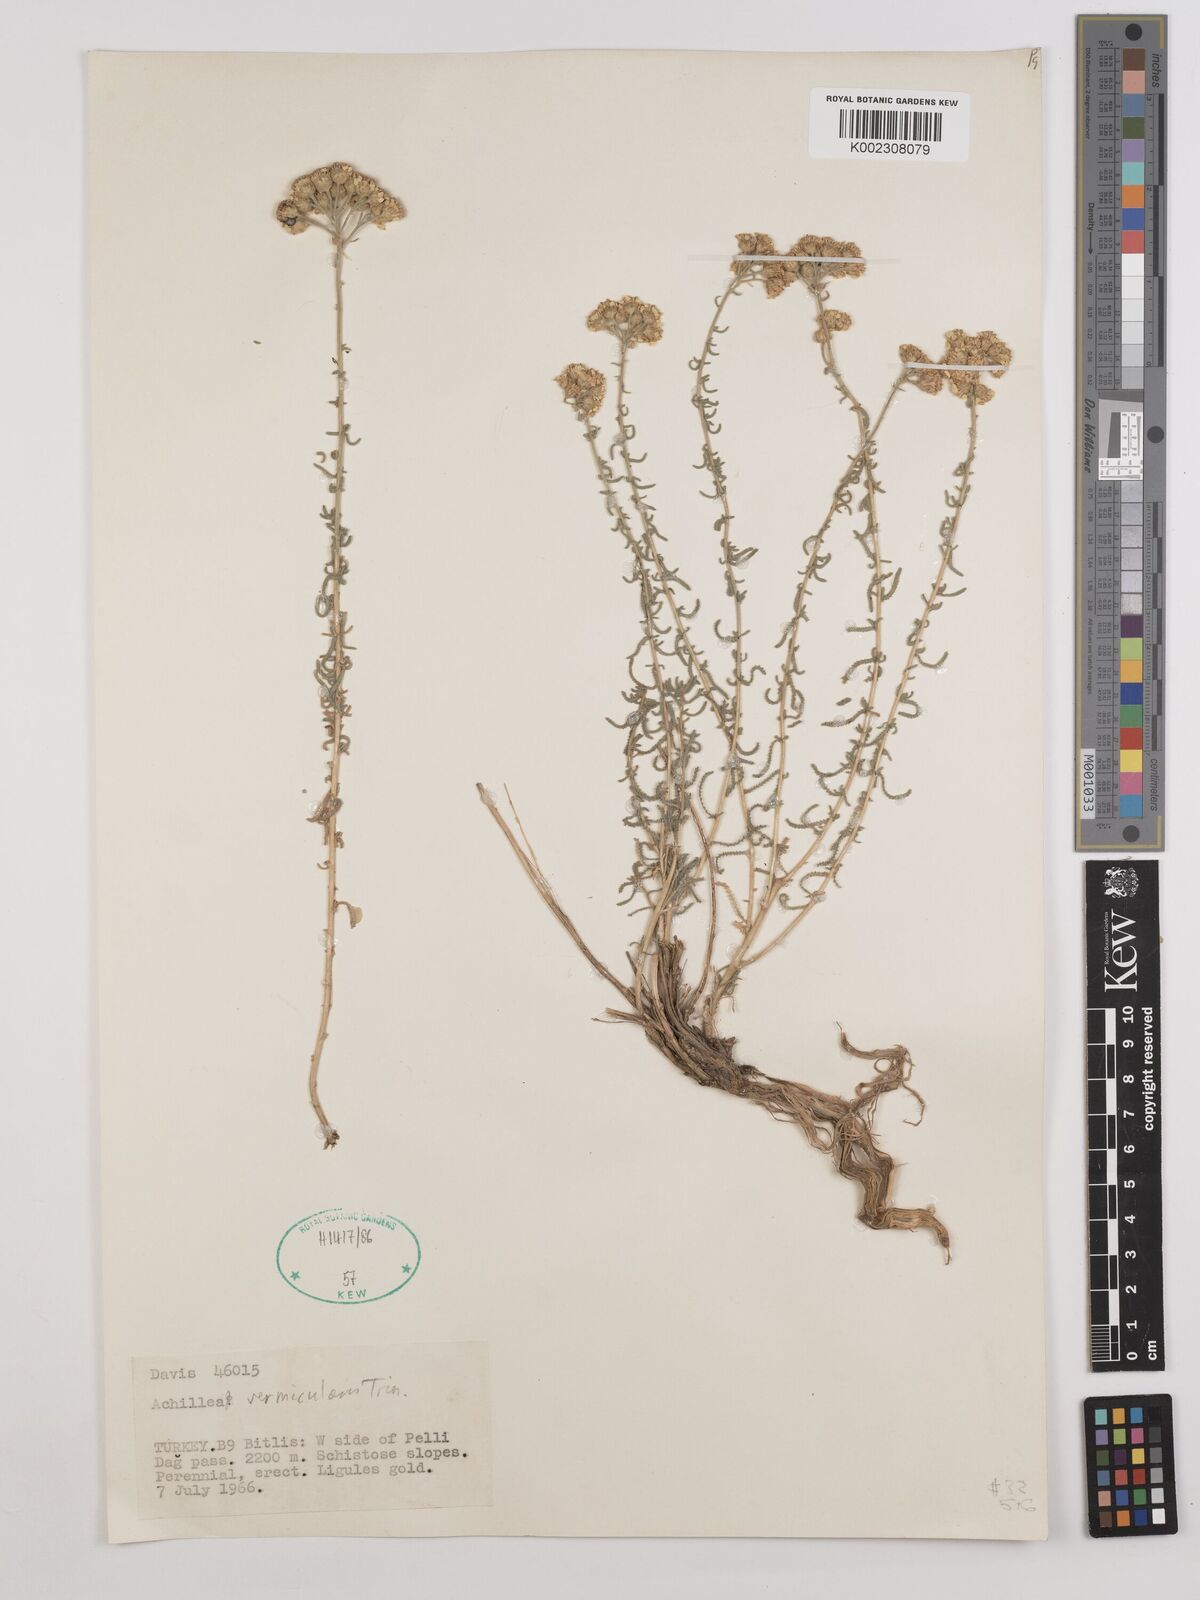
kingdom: Plantae
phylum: Tracheophyta
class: Magnoliopsida
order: Asterales
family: Asteraceae
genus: Achillea
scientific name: Achillea vermicularis
